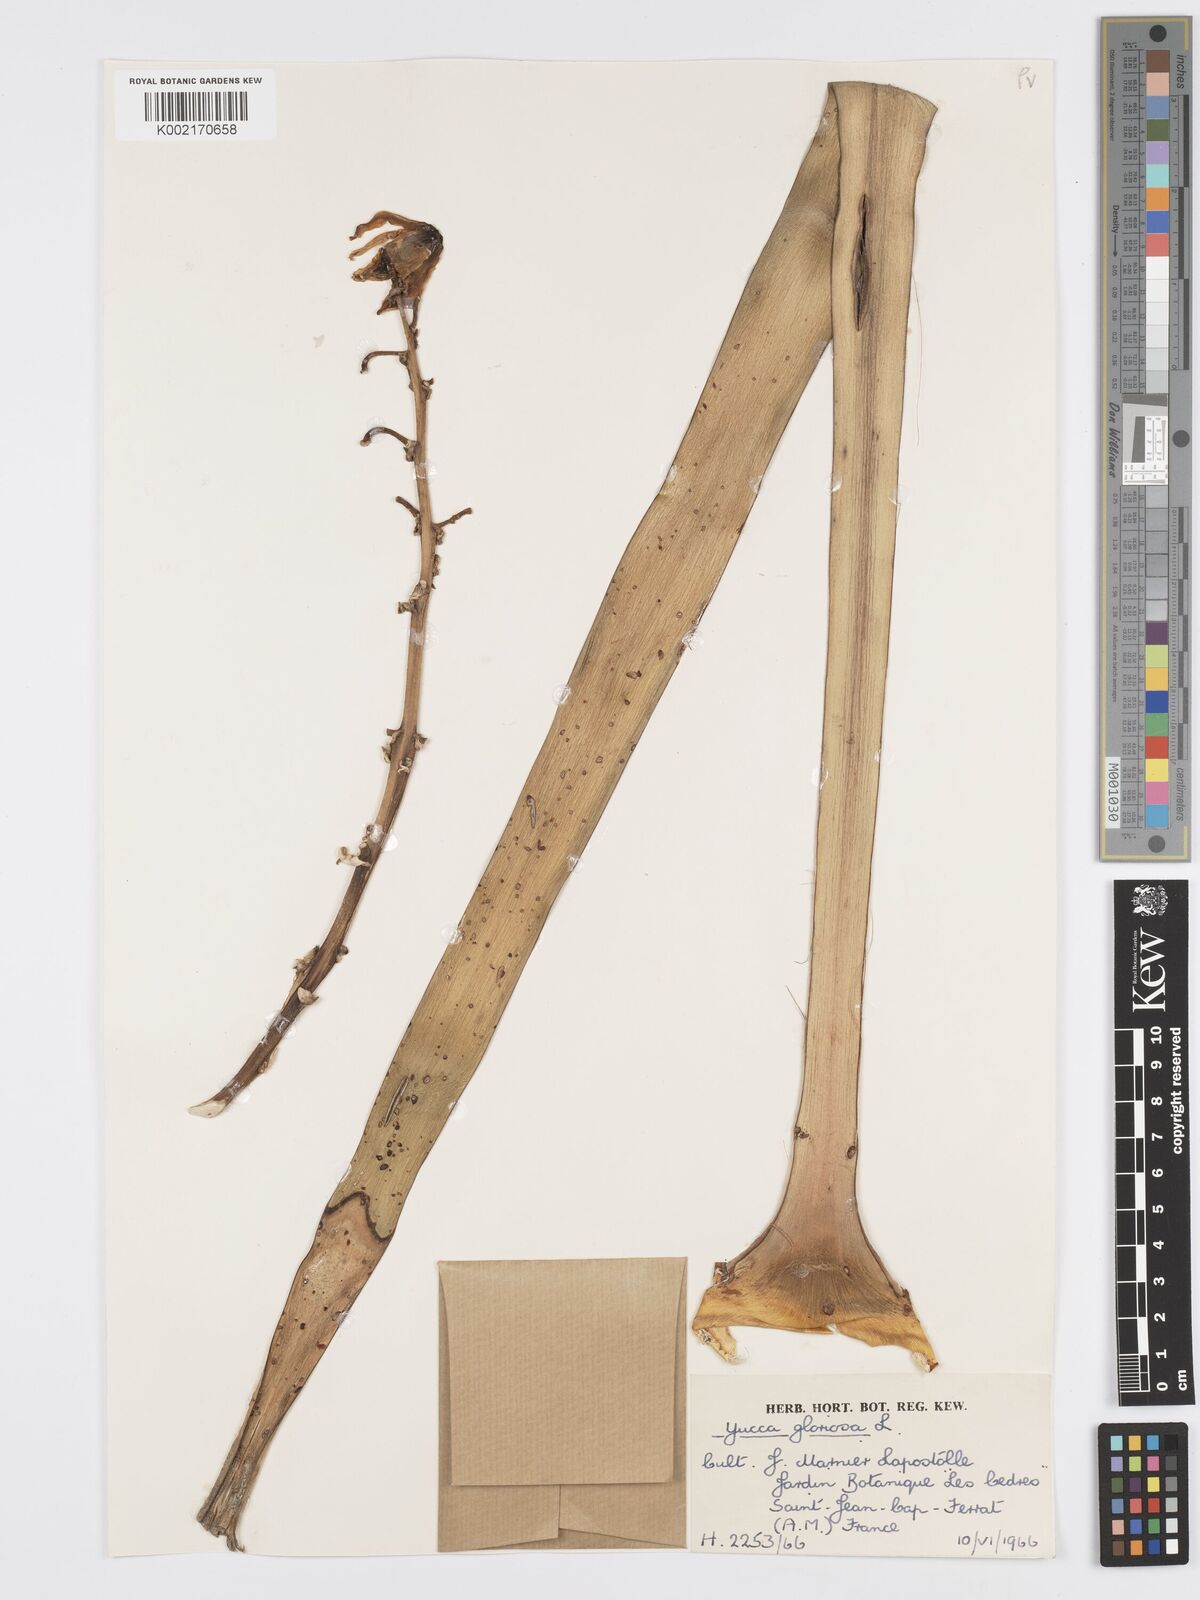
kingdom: Plantae
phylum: Tracheophyta
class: Liliopsida
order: Asparagales
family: Asparagaceae
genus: Yucca
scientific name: Yucca gloriosa
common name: Spanish-dagger
